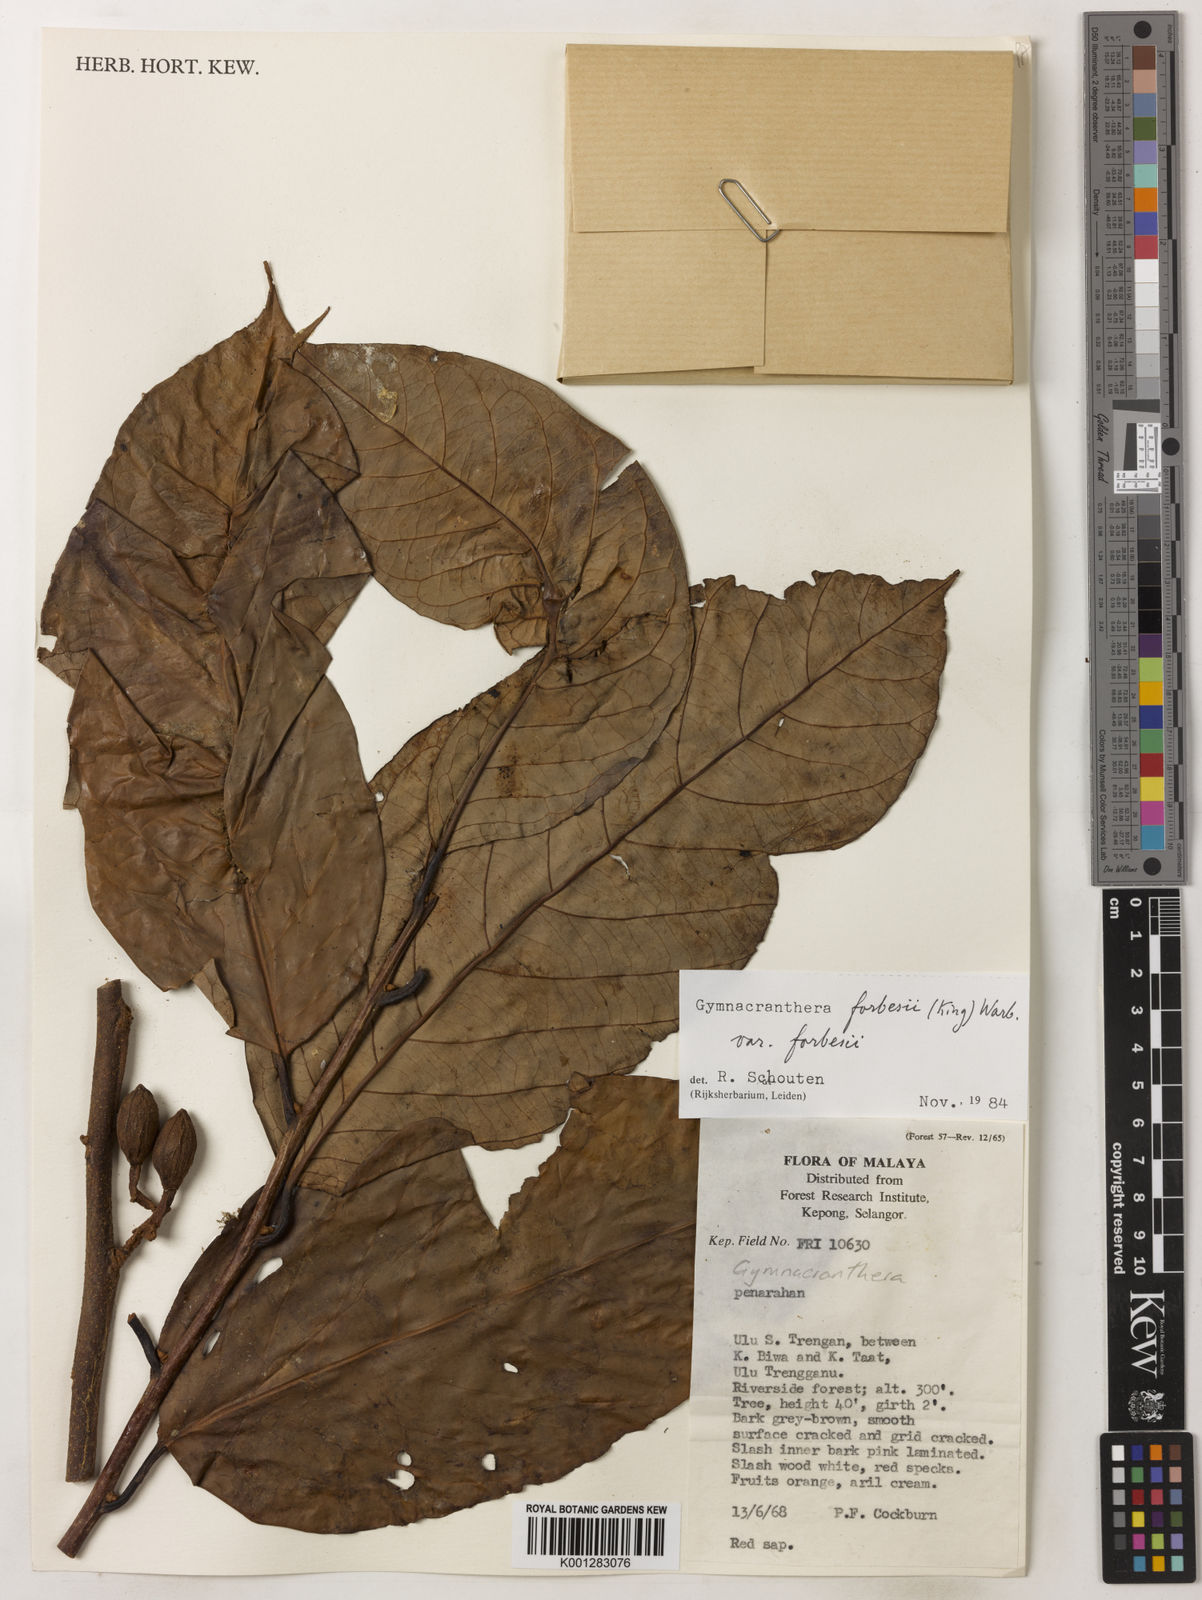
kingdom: Plantae
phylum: Tracheophyta
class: Magnoliopsida
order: Magnoliales
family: Myristicaceae
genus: Gymnacranthera
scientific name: Gymnacranthera forbesii
